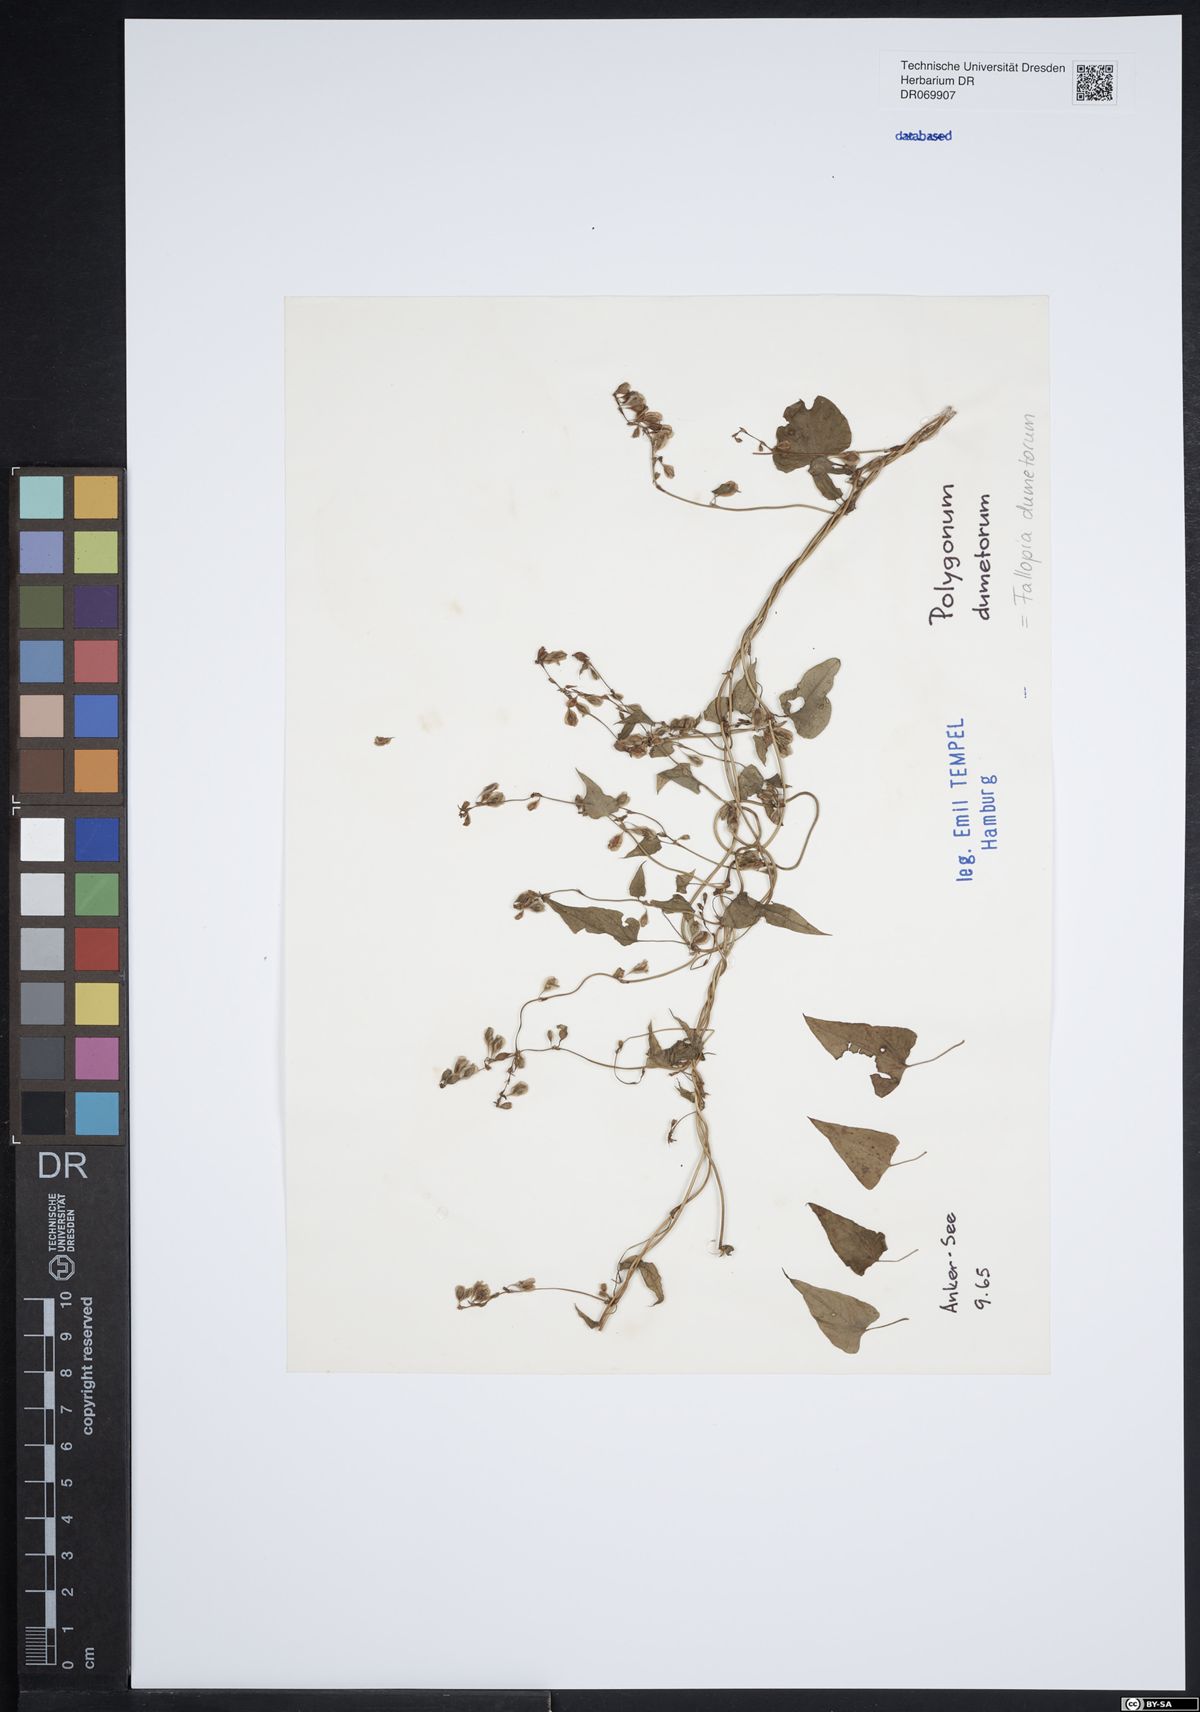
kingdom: Plantae
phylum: Tracheophyta
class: Magnoliopsida
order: Caryophyllales
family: Polygonaceae
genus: Fallopia
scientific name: Fallopia dumetorum
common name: Copse-bindweed
